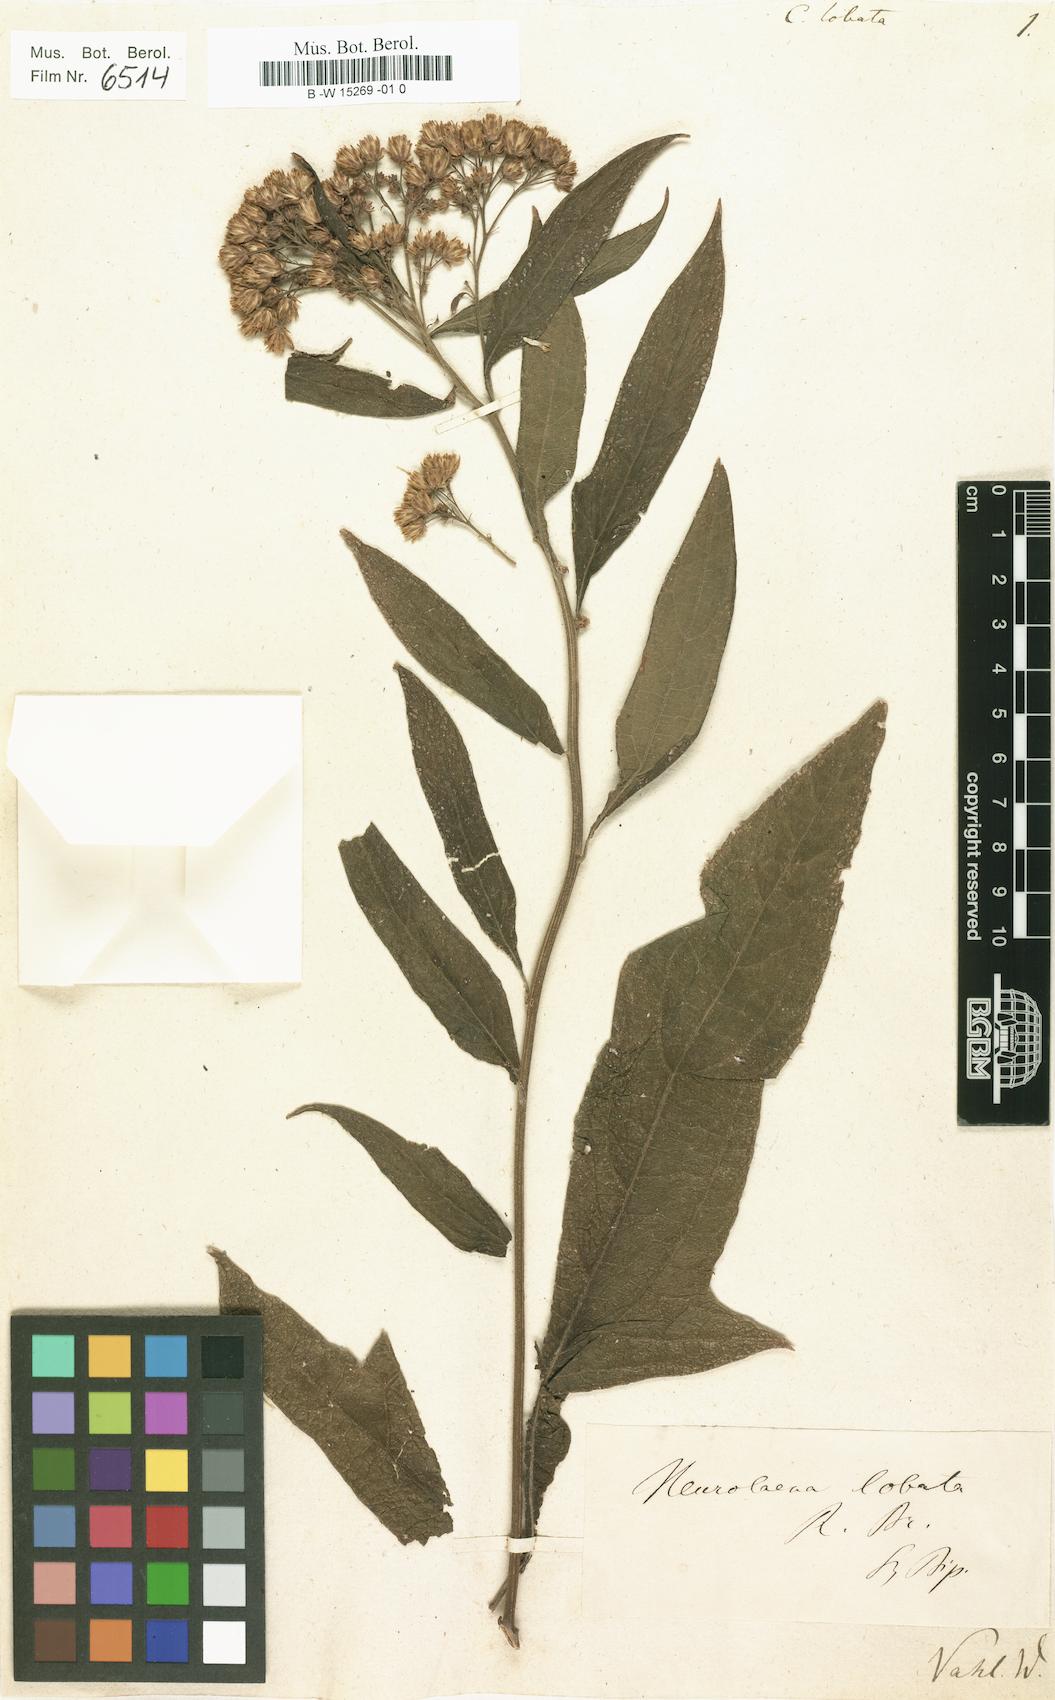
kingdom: Plantae
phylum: Tracheophyta
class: Magnoliopsida
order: Asterales
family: Asteraceae
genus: Neurolaena
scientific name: Neurolaena lobata
